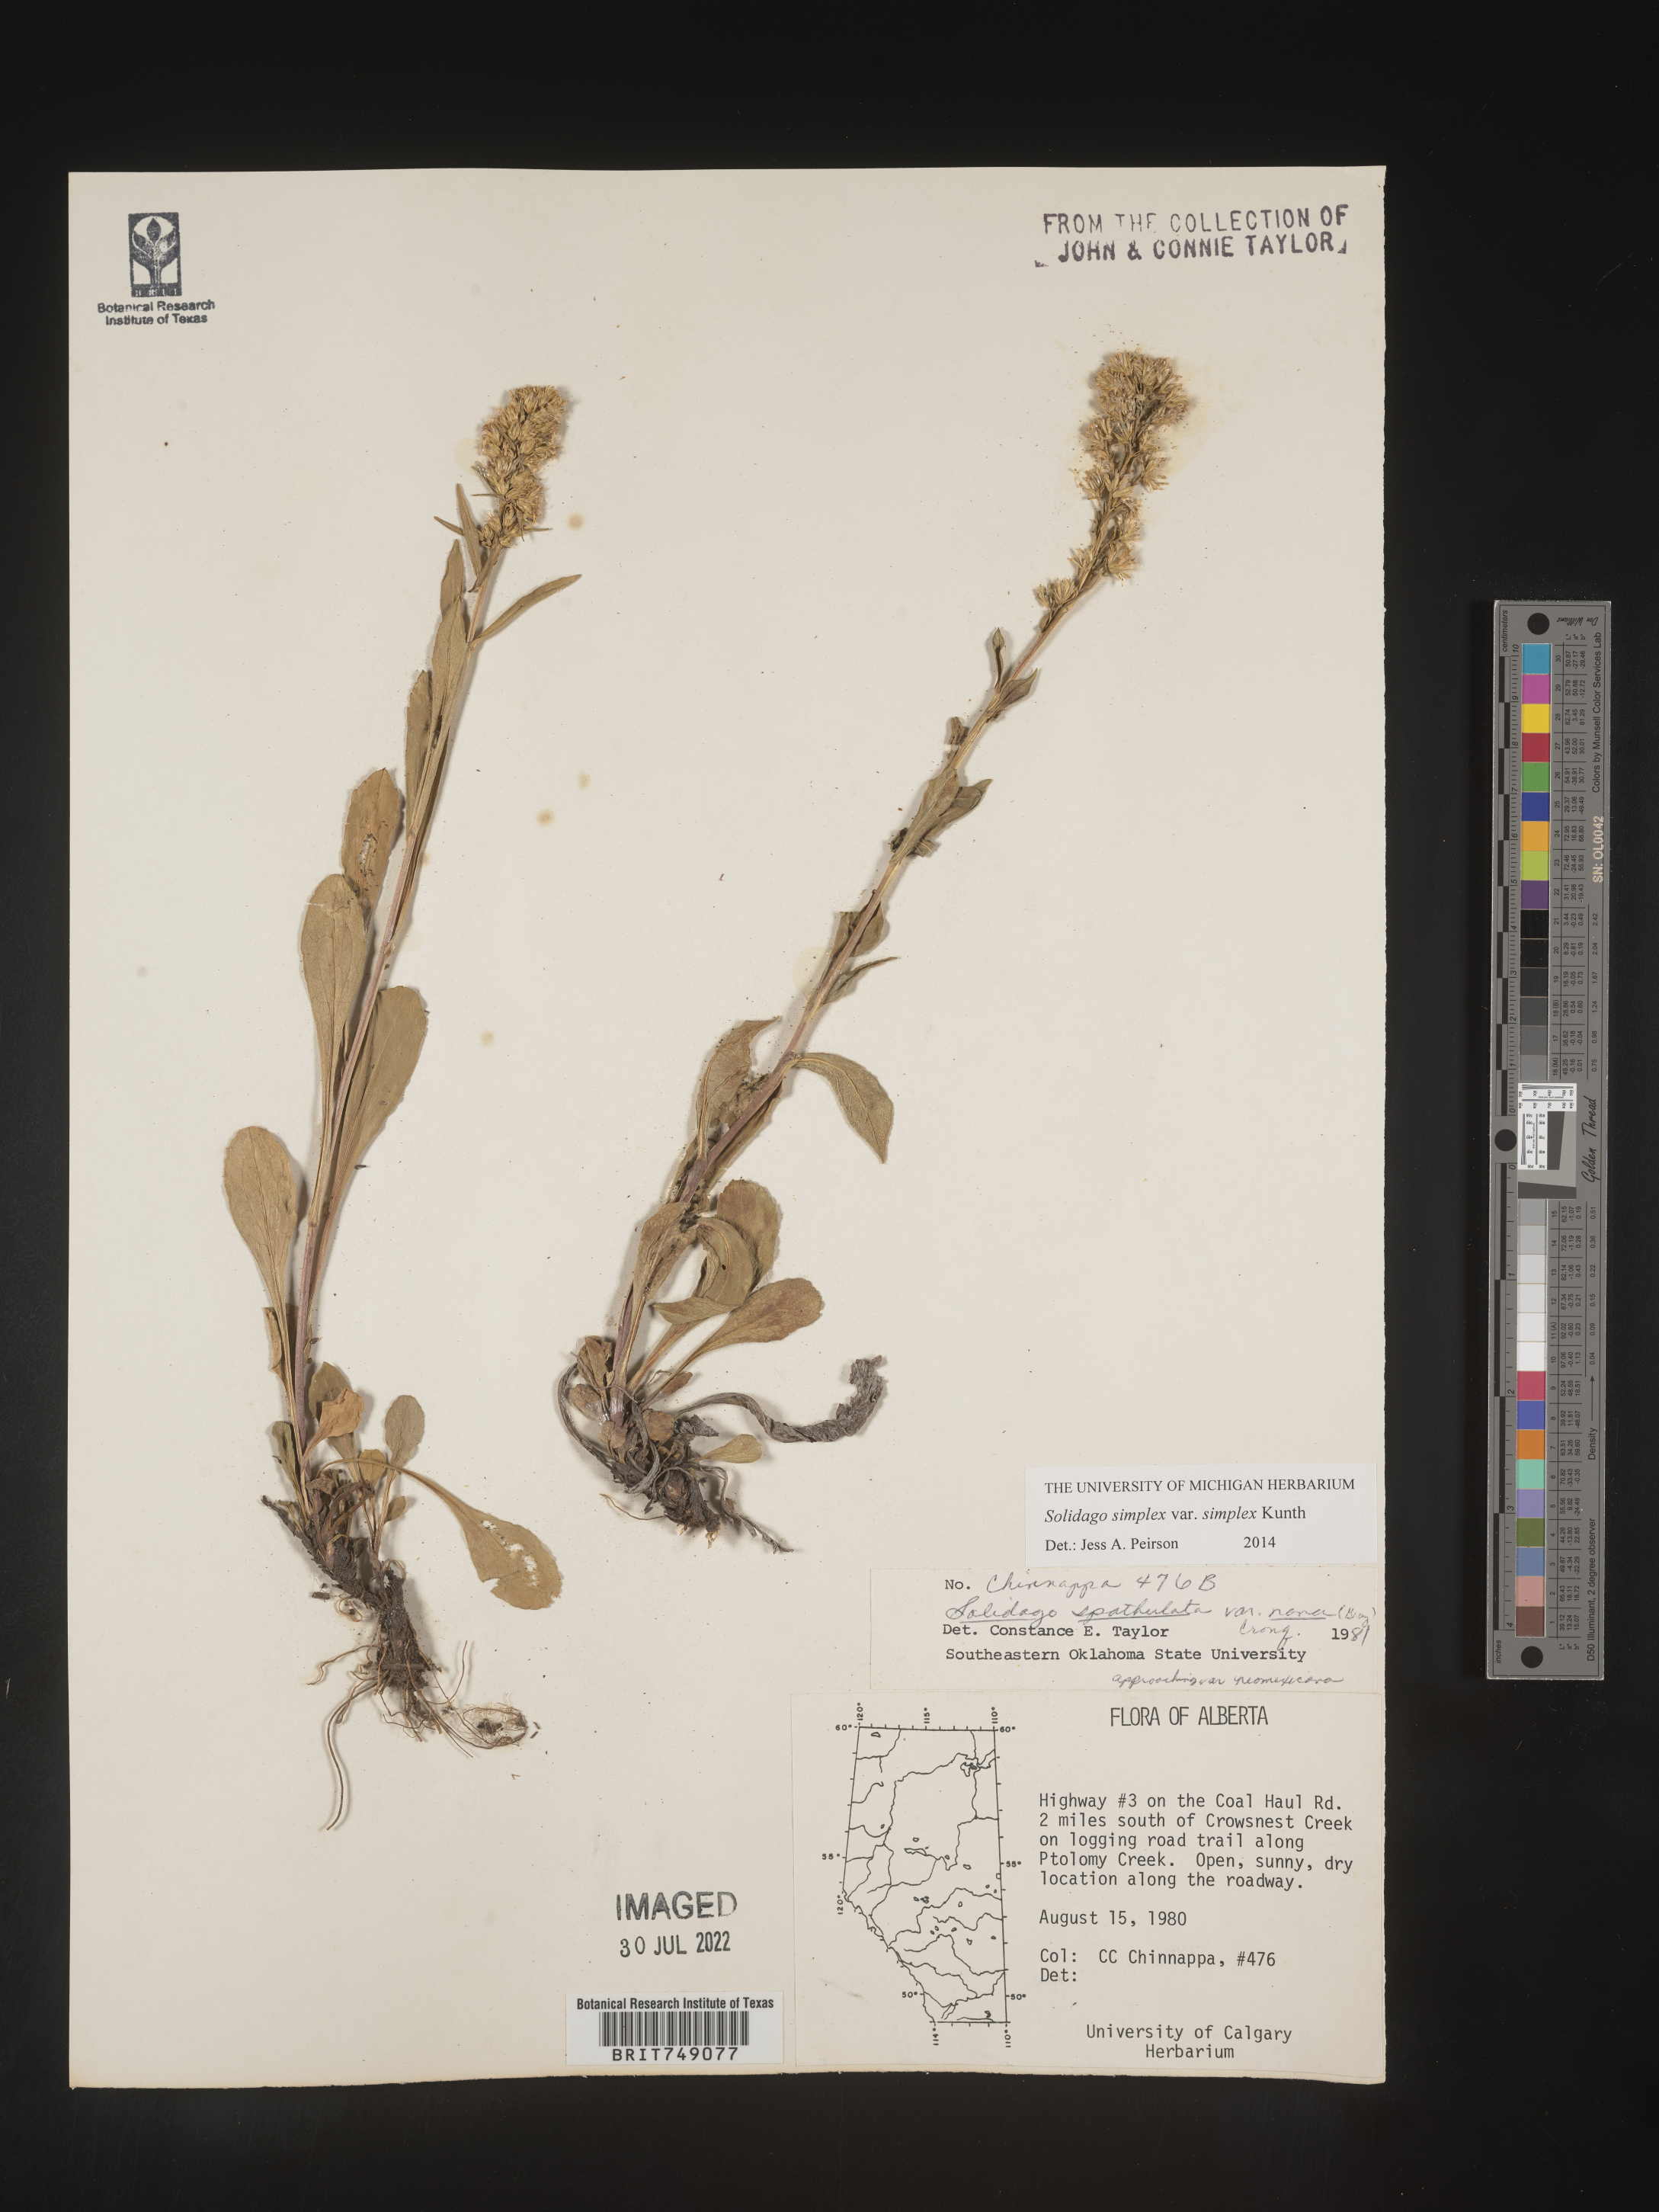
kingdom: Plantae
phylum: Tracheophyta
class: Magnoliopsida
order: Asterales
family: Asteraceae
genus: Solidago
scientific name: Solidago simplex
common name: Sticky goldenrod
